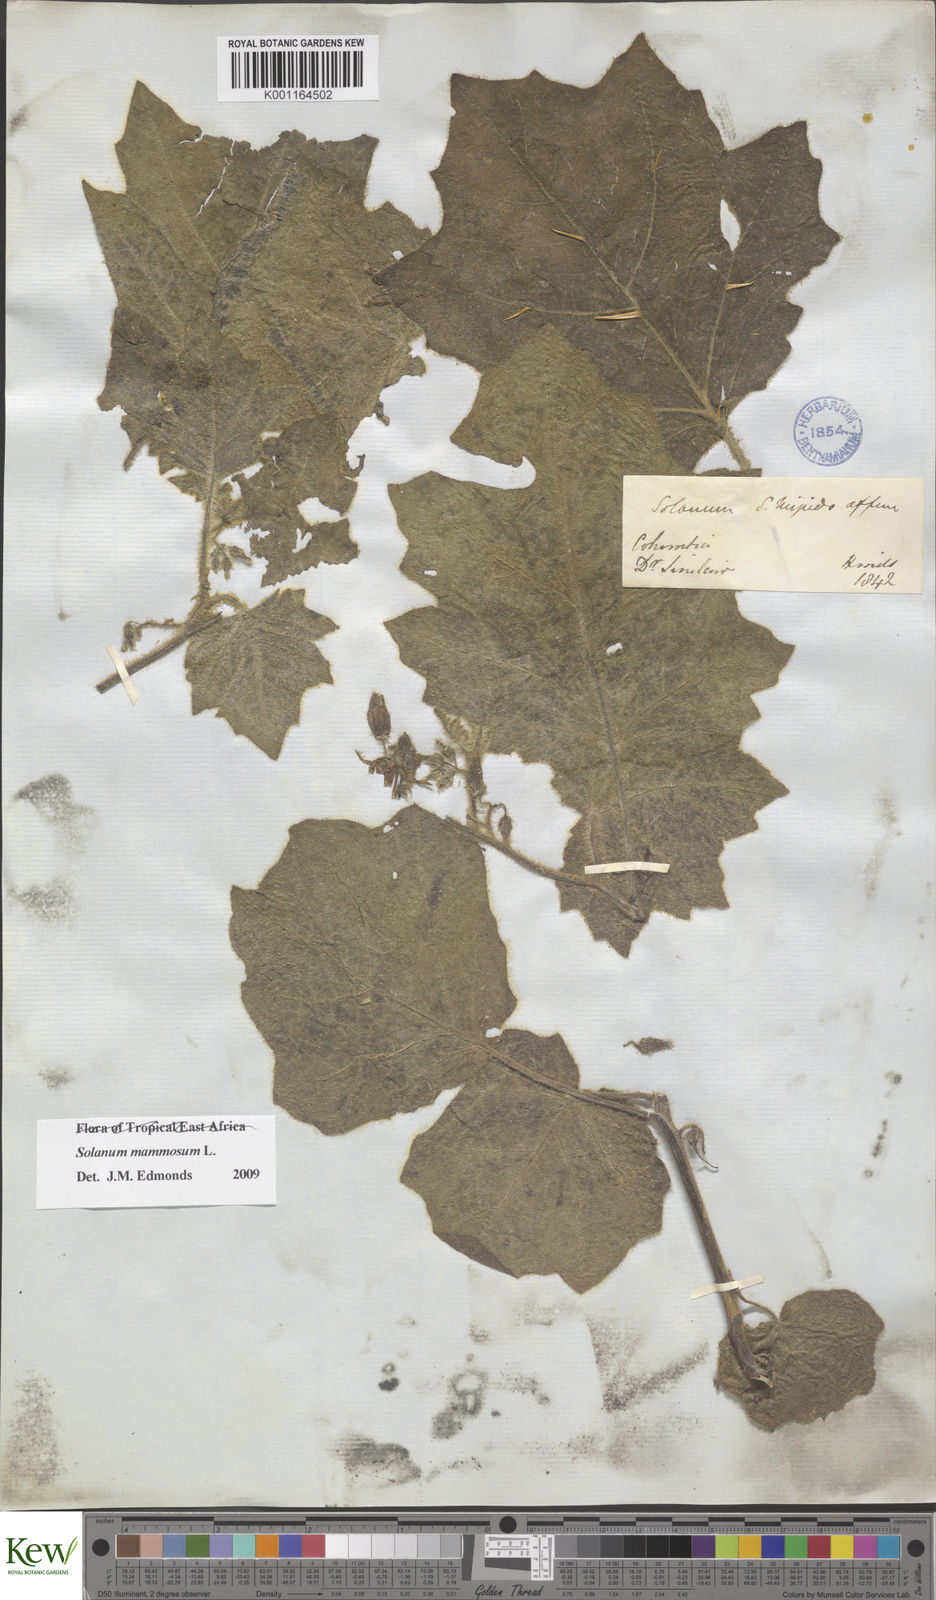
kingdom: Plantae
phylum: Tracheophyta
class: Magnoliopsida
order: Solanales
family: Solanaceae
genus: Solanum
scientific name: Solanum mammosum
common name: Nipple fruit
